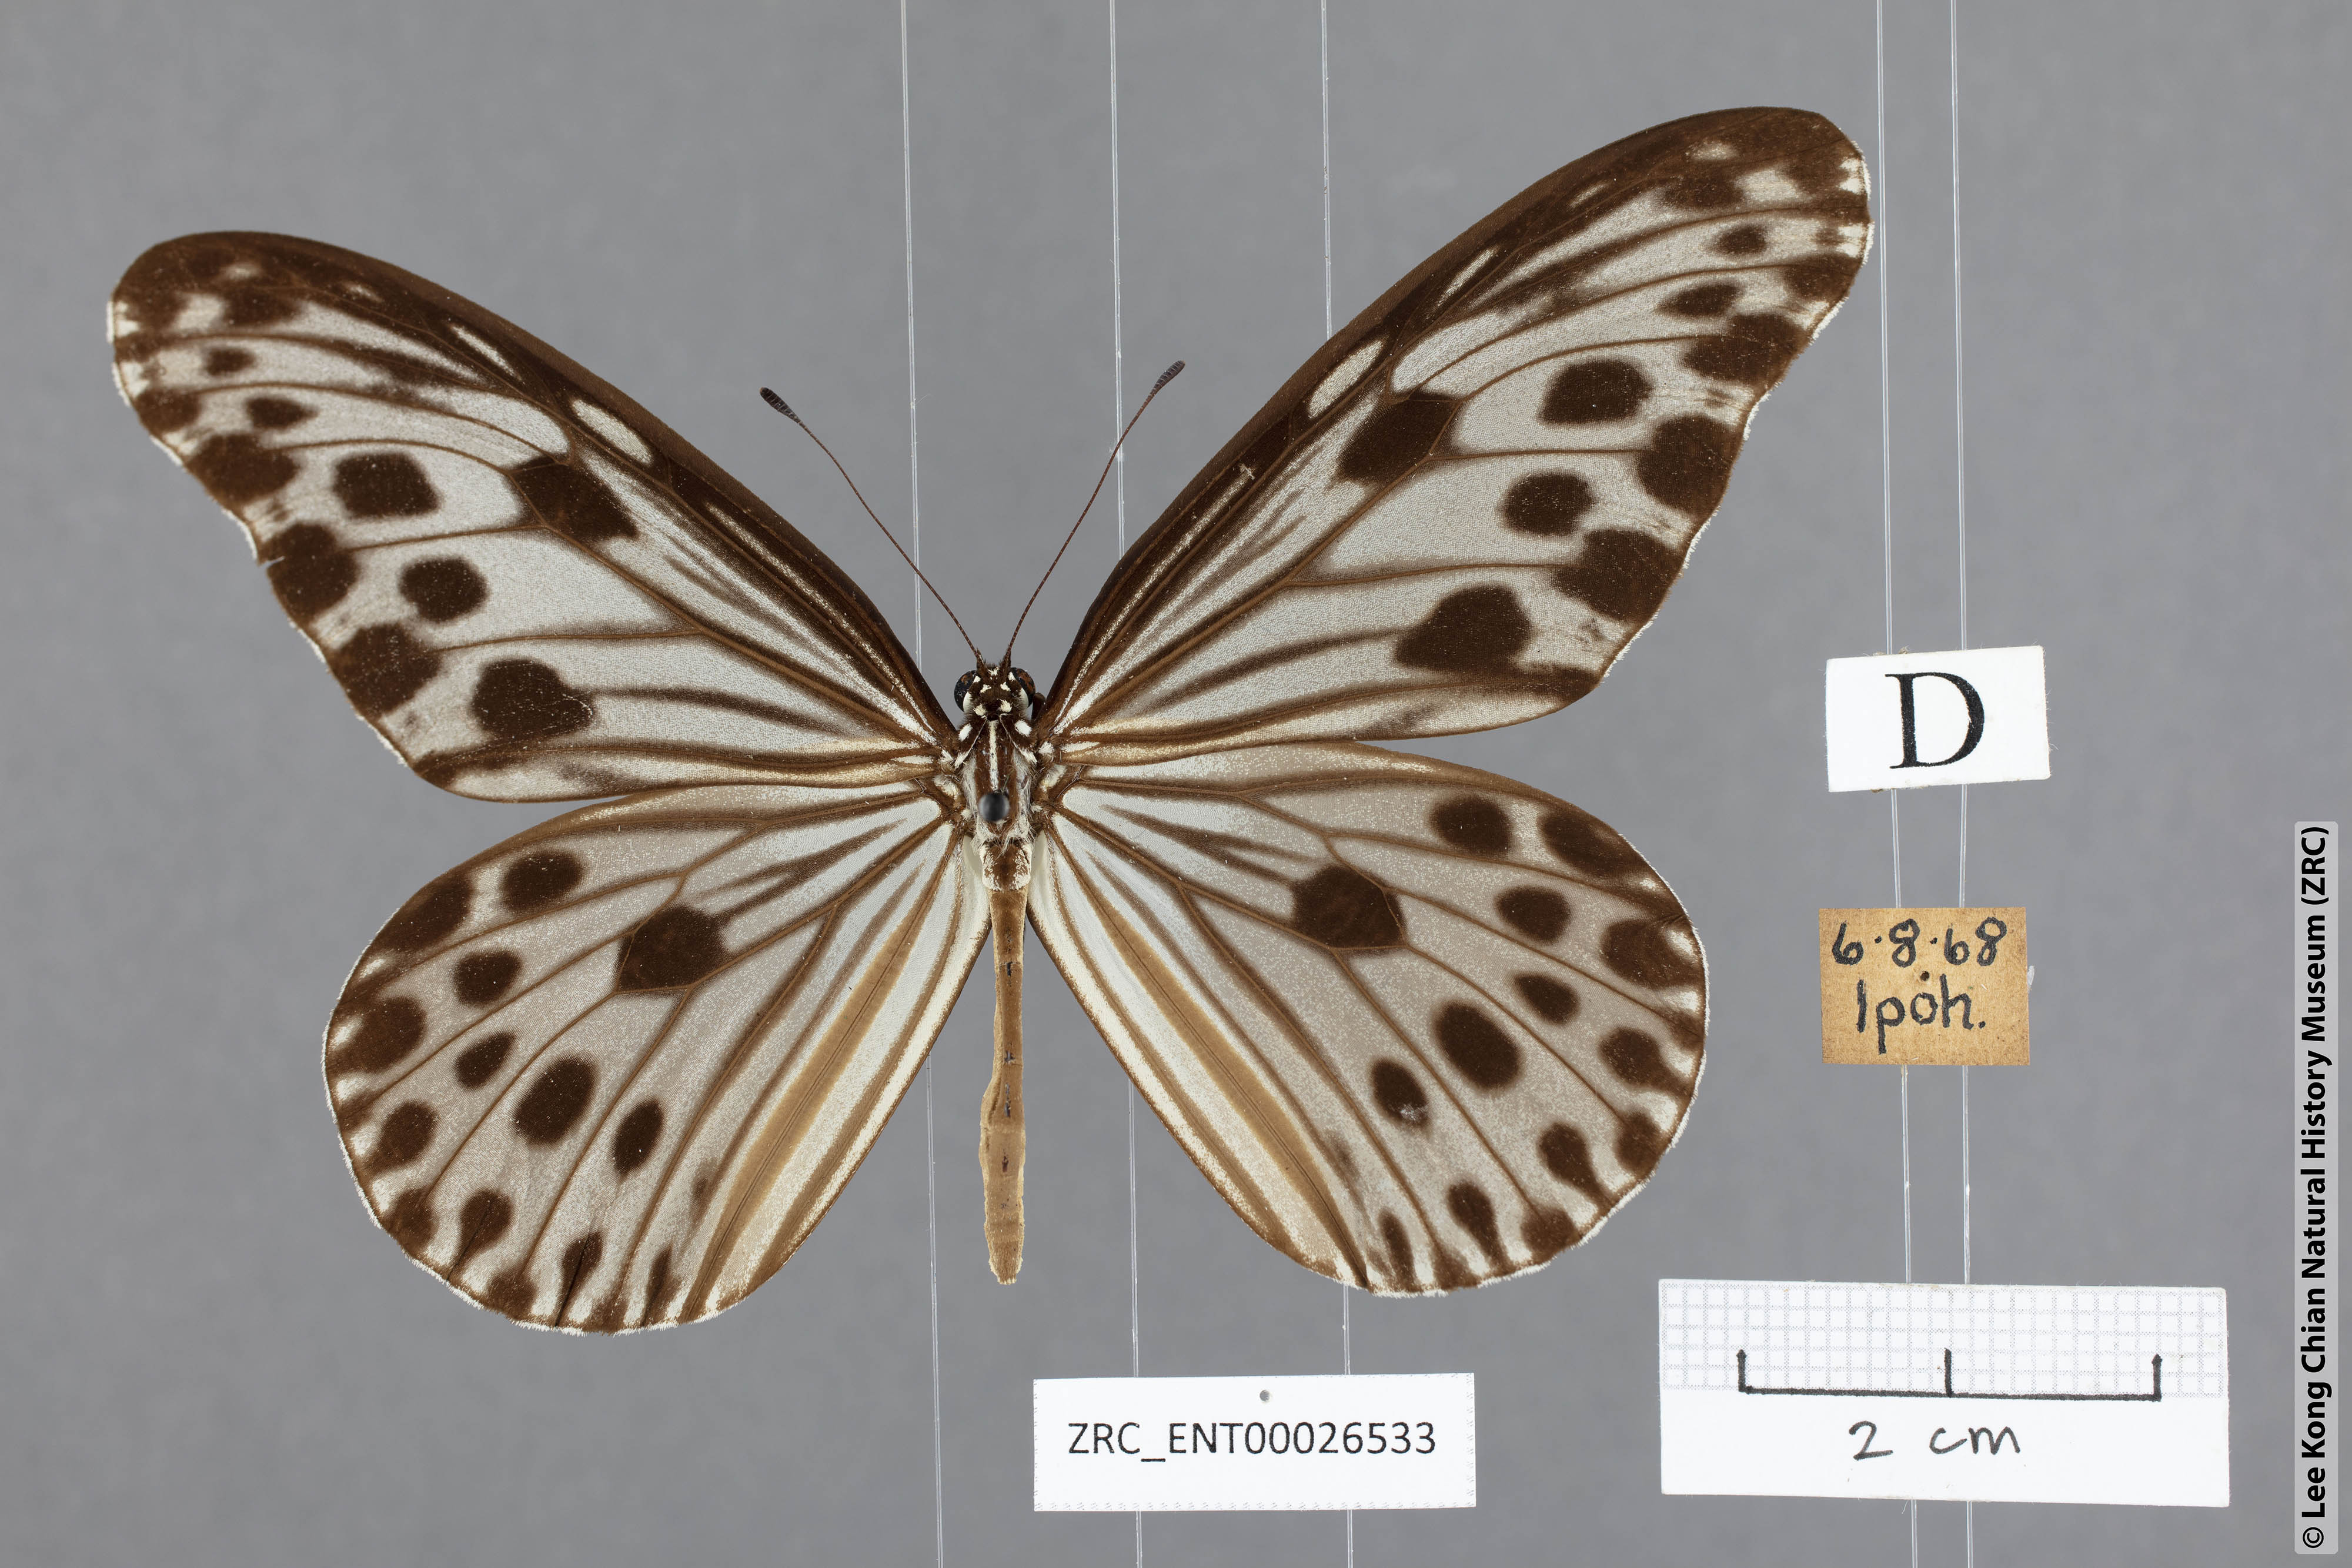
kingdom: Animalia
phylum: Arthropoda
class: Insecta
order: Lepidoptera
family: Nymphalidae
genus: Ideopsis
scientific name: Ideopsis gaura
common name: Smaller wood nymph
